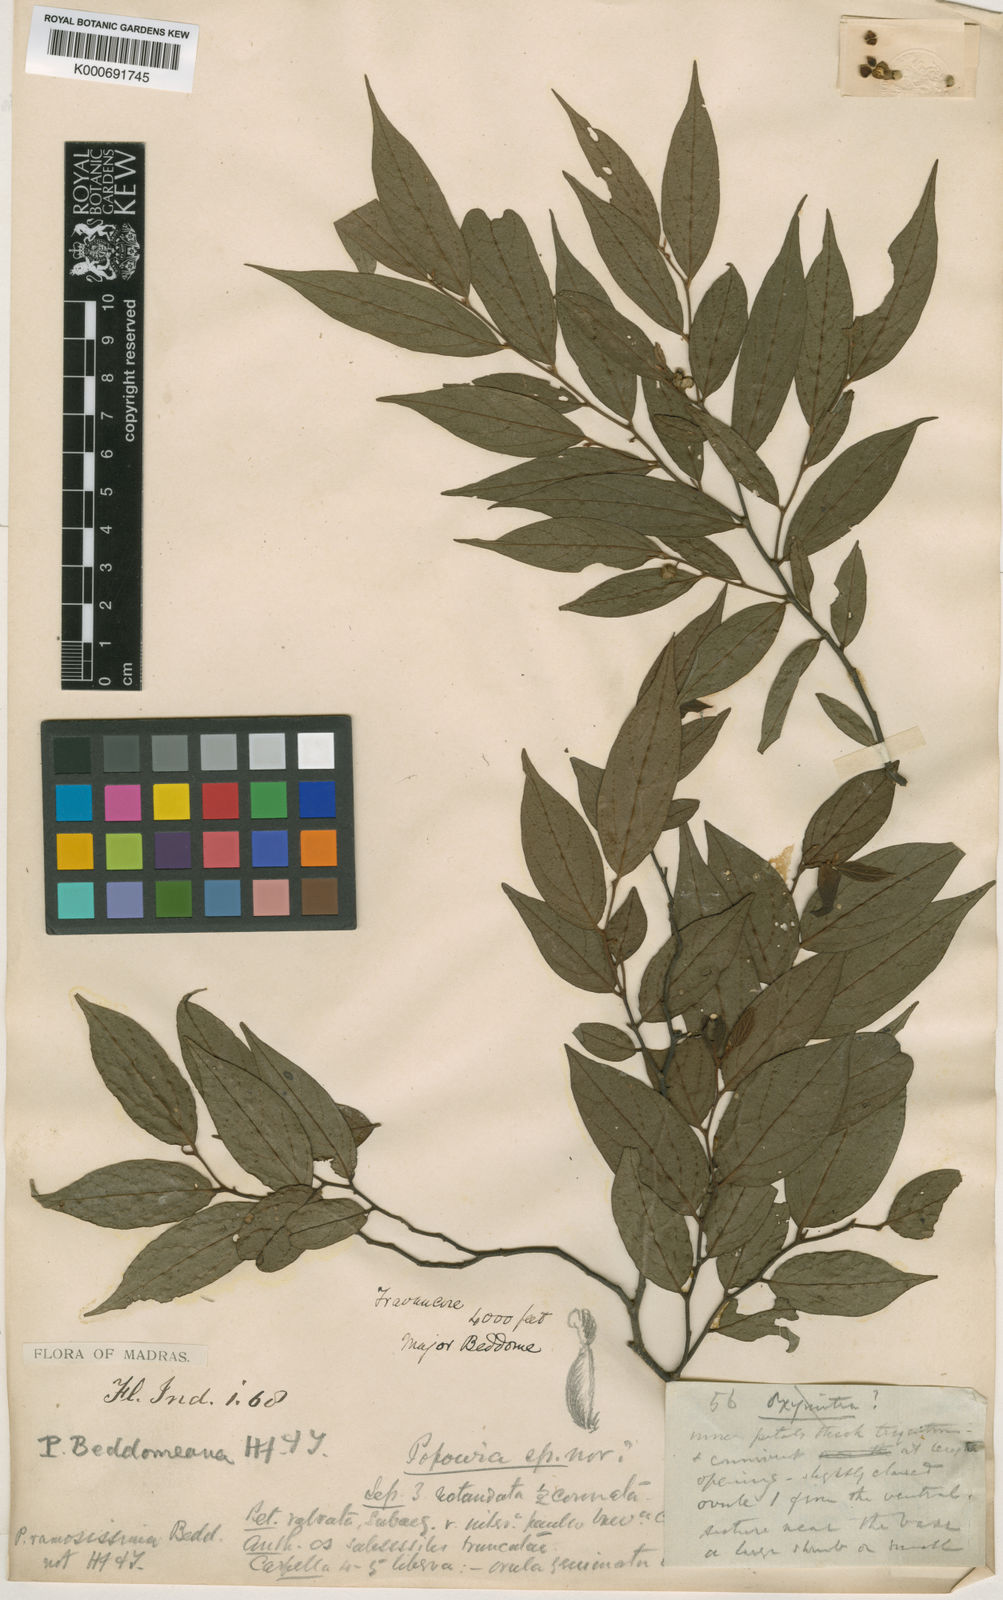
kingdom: Plantae
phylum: Tracheophyta
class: Magnoliopsida
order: Magnoliales
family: Annonaceae
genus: Popowia
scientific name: Popowia beddomeana
